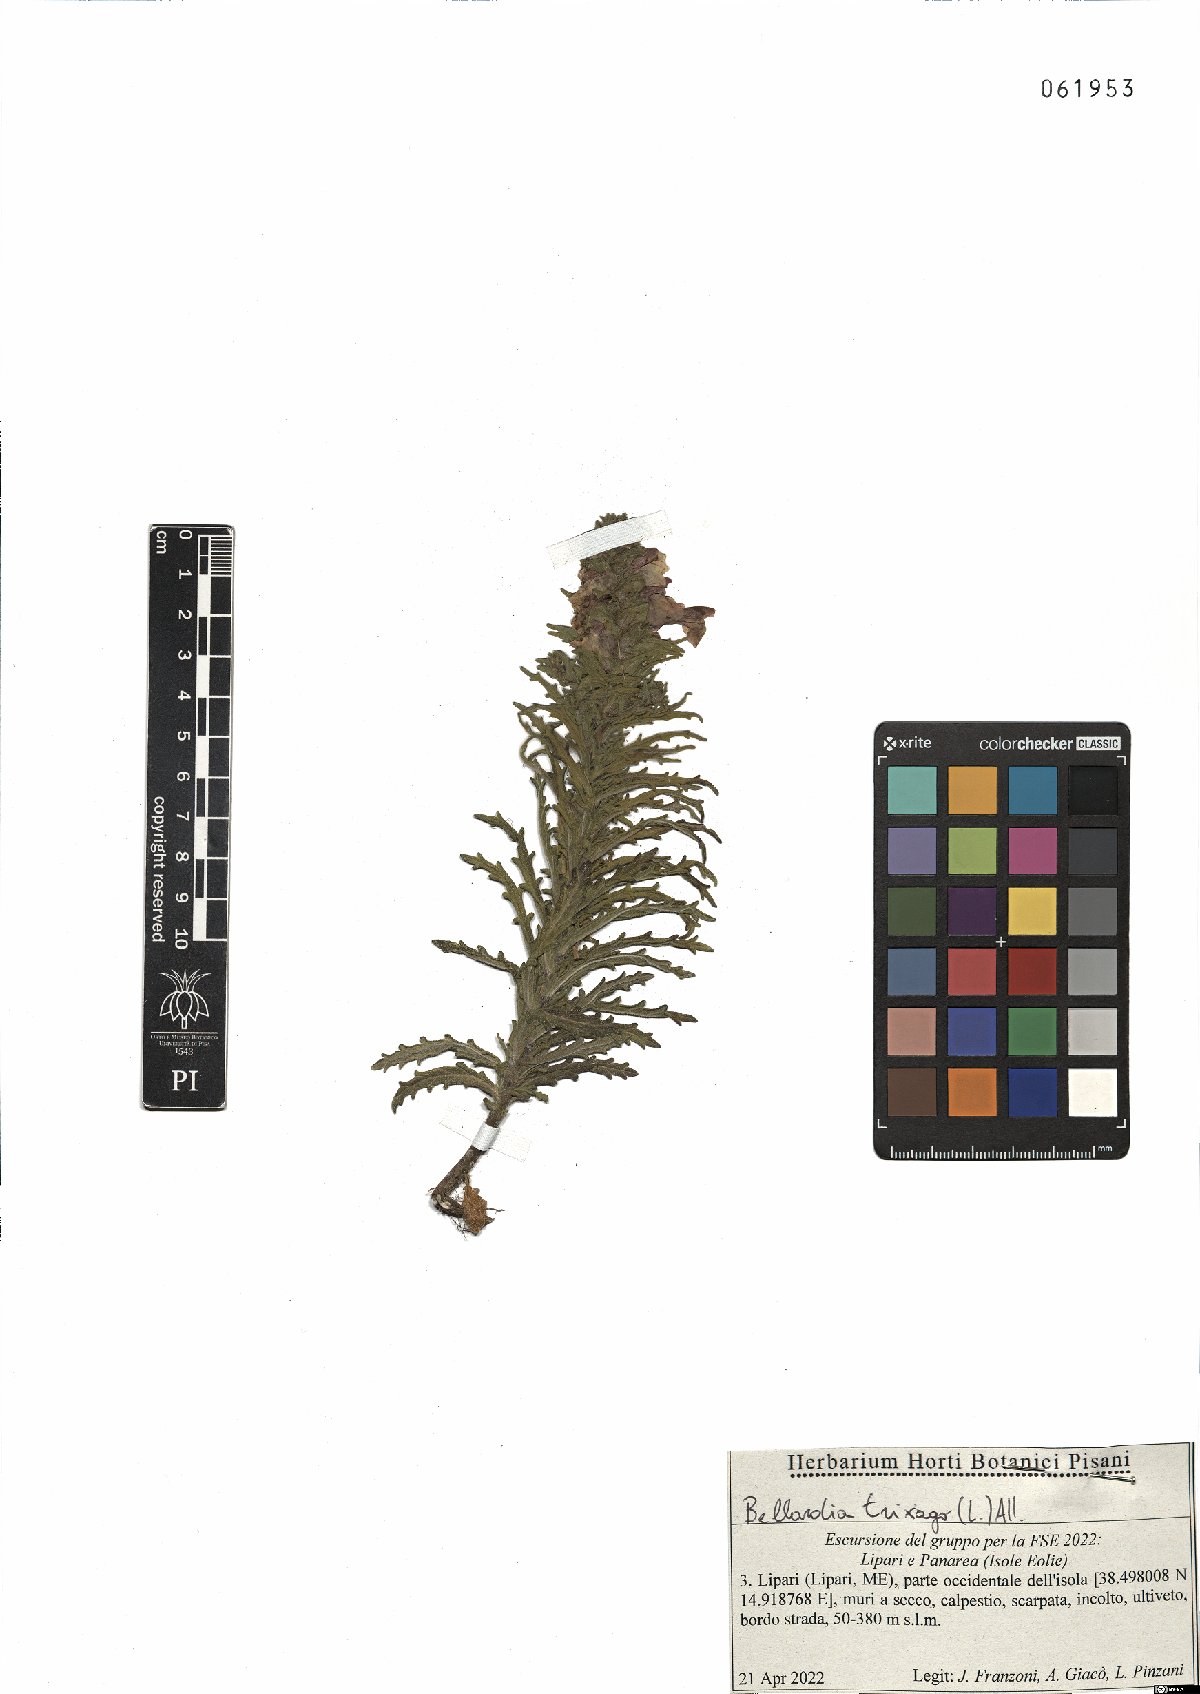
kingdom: Plantae
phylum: Tracheophyta
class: Magnoliopsida
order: Lamiales
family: Orobanchaceae
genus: Bellardia
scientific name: Bellardia trixago
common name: Mediterranean lineseed
